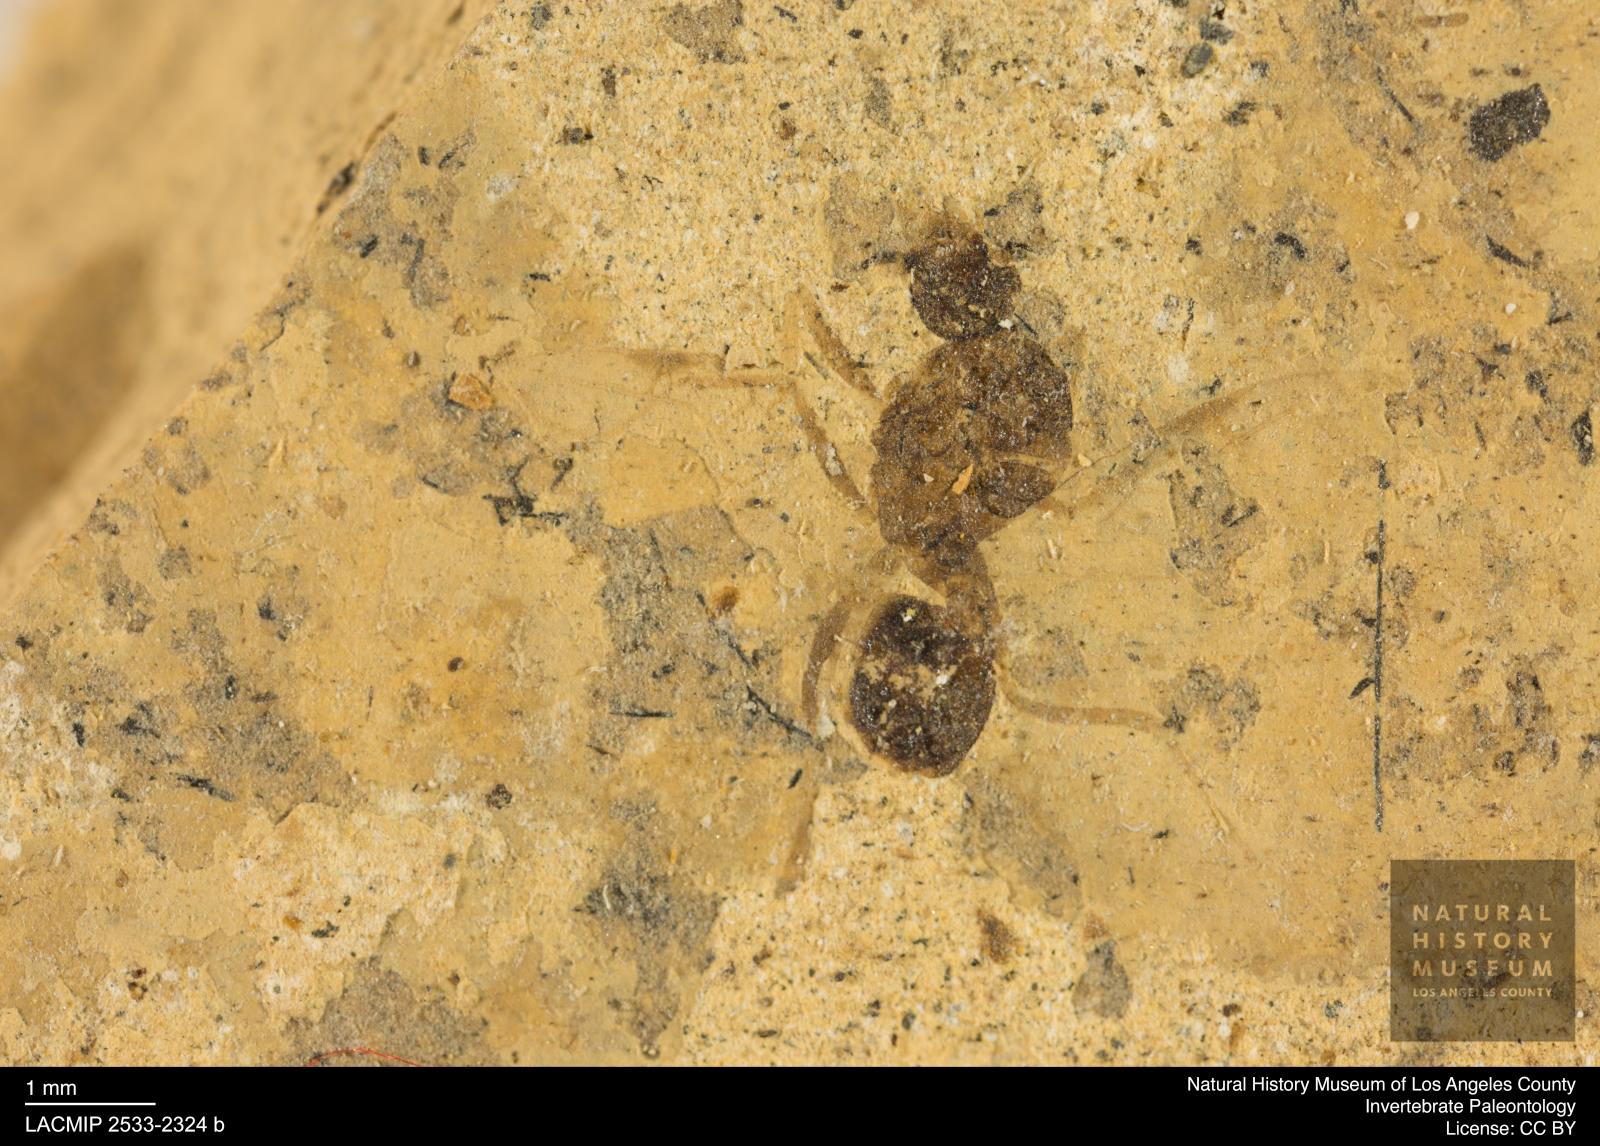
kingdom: Animalia
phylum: Arthropoda
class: Insecta
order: Hymenoptera
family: Formicidae
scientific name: Formicidae
